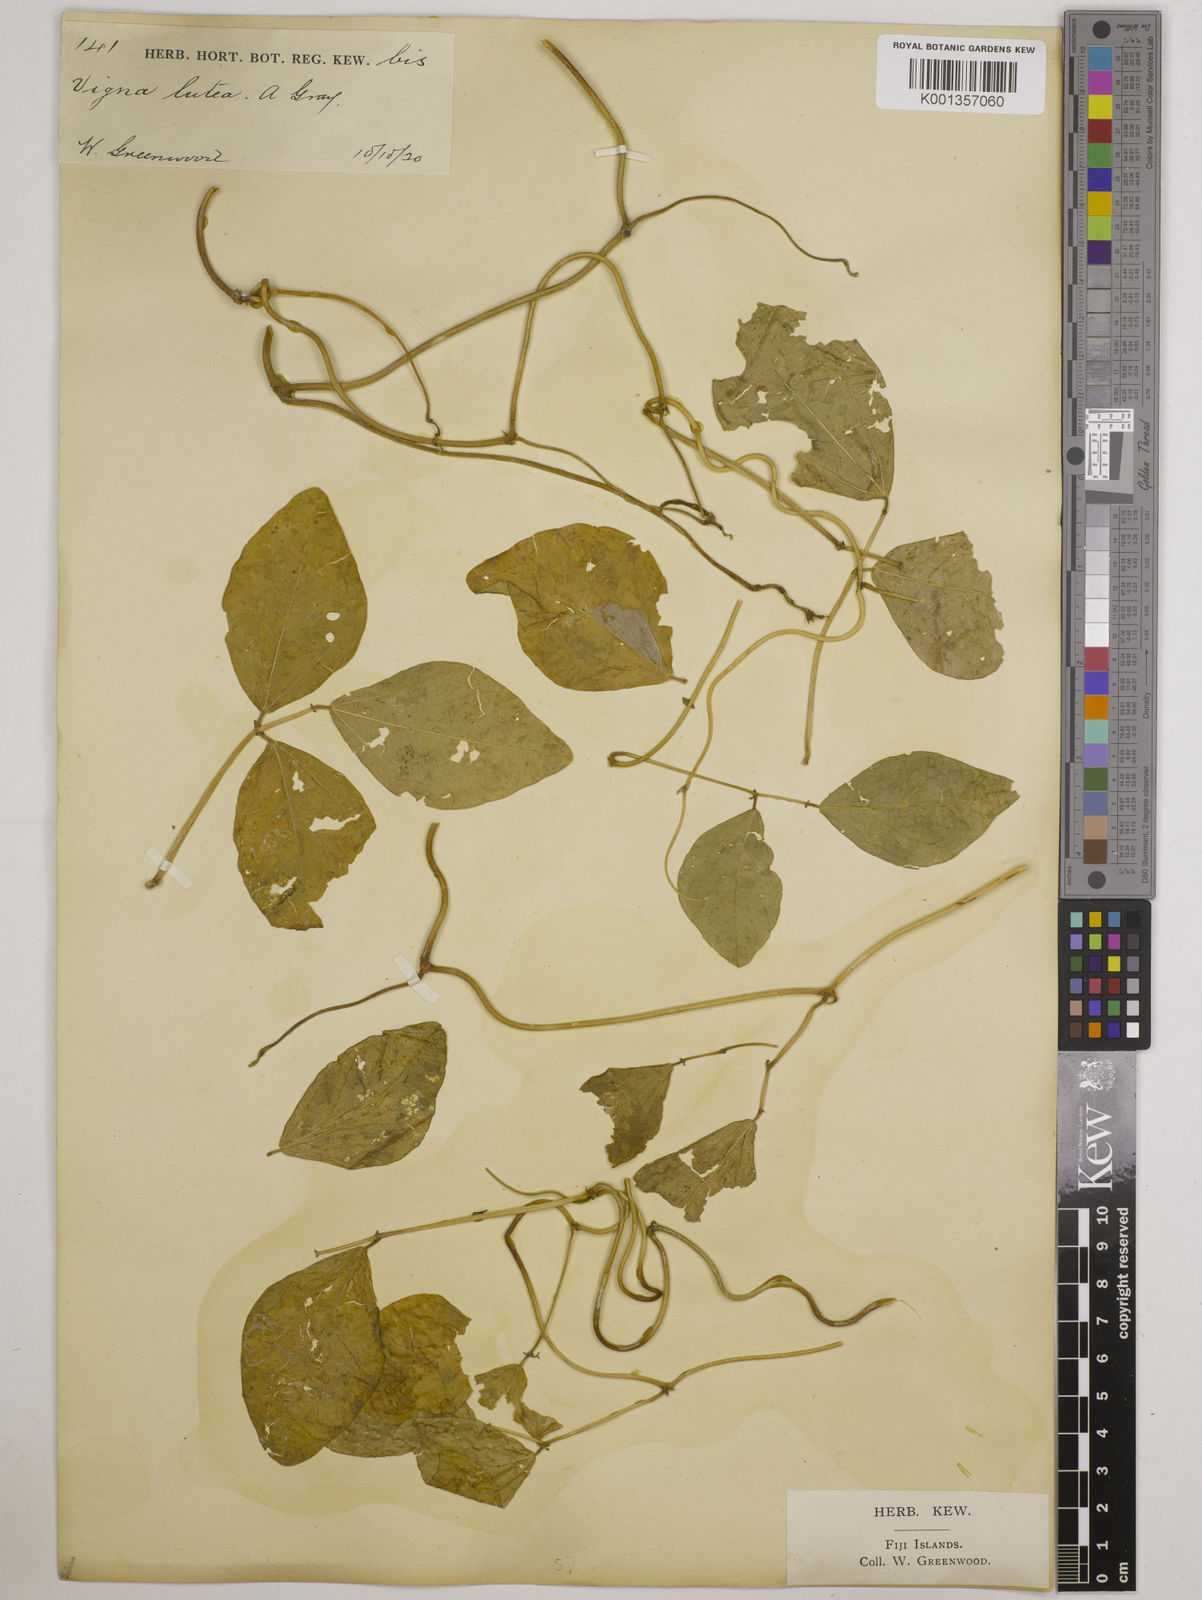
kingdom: Plantae
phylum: Tracheophyta
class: Magnoliopsida
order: Fabales
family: Fabaceae
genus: Vigna
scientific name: Vigna marina
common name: Dune-bean
